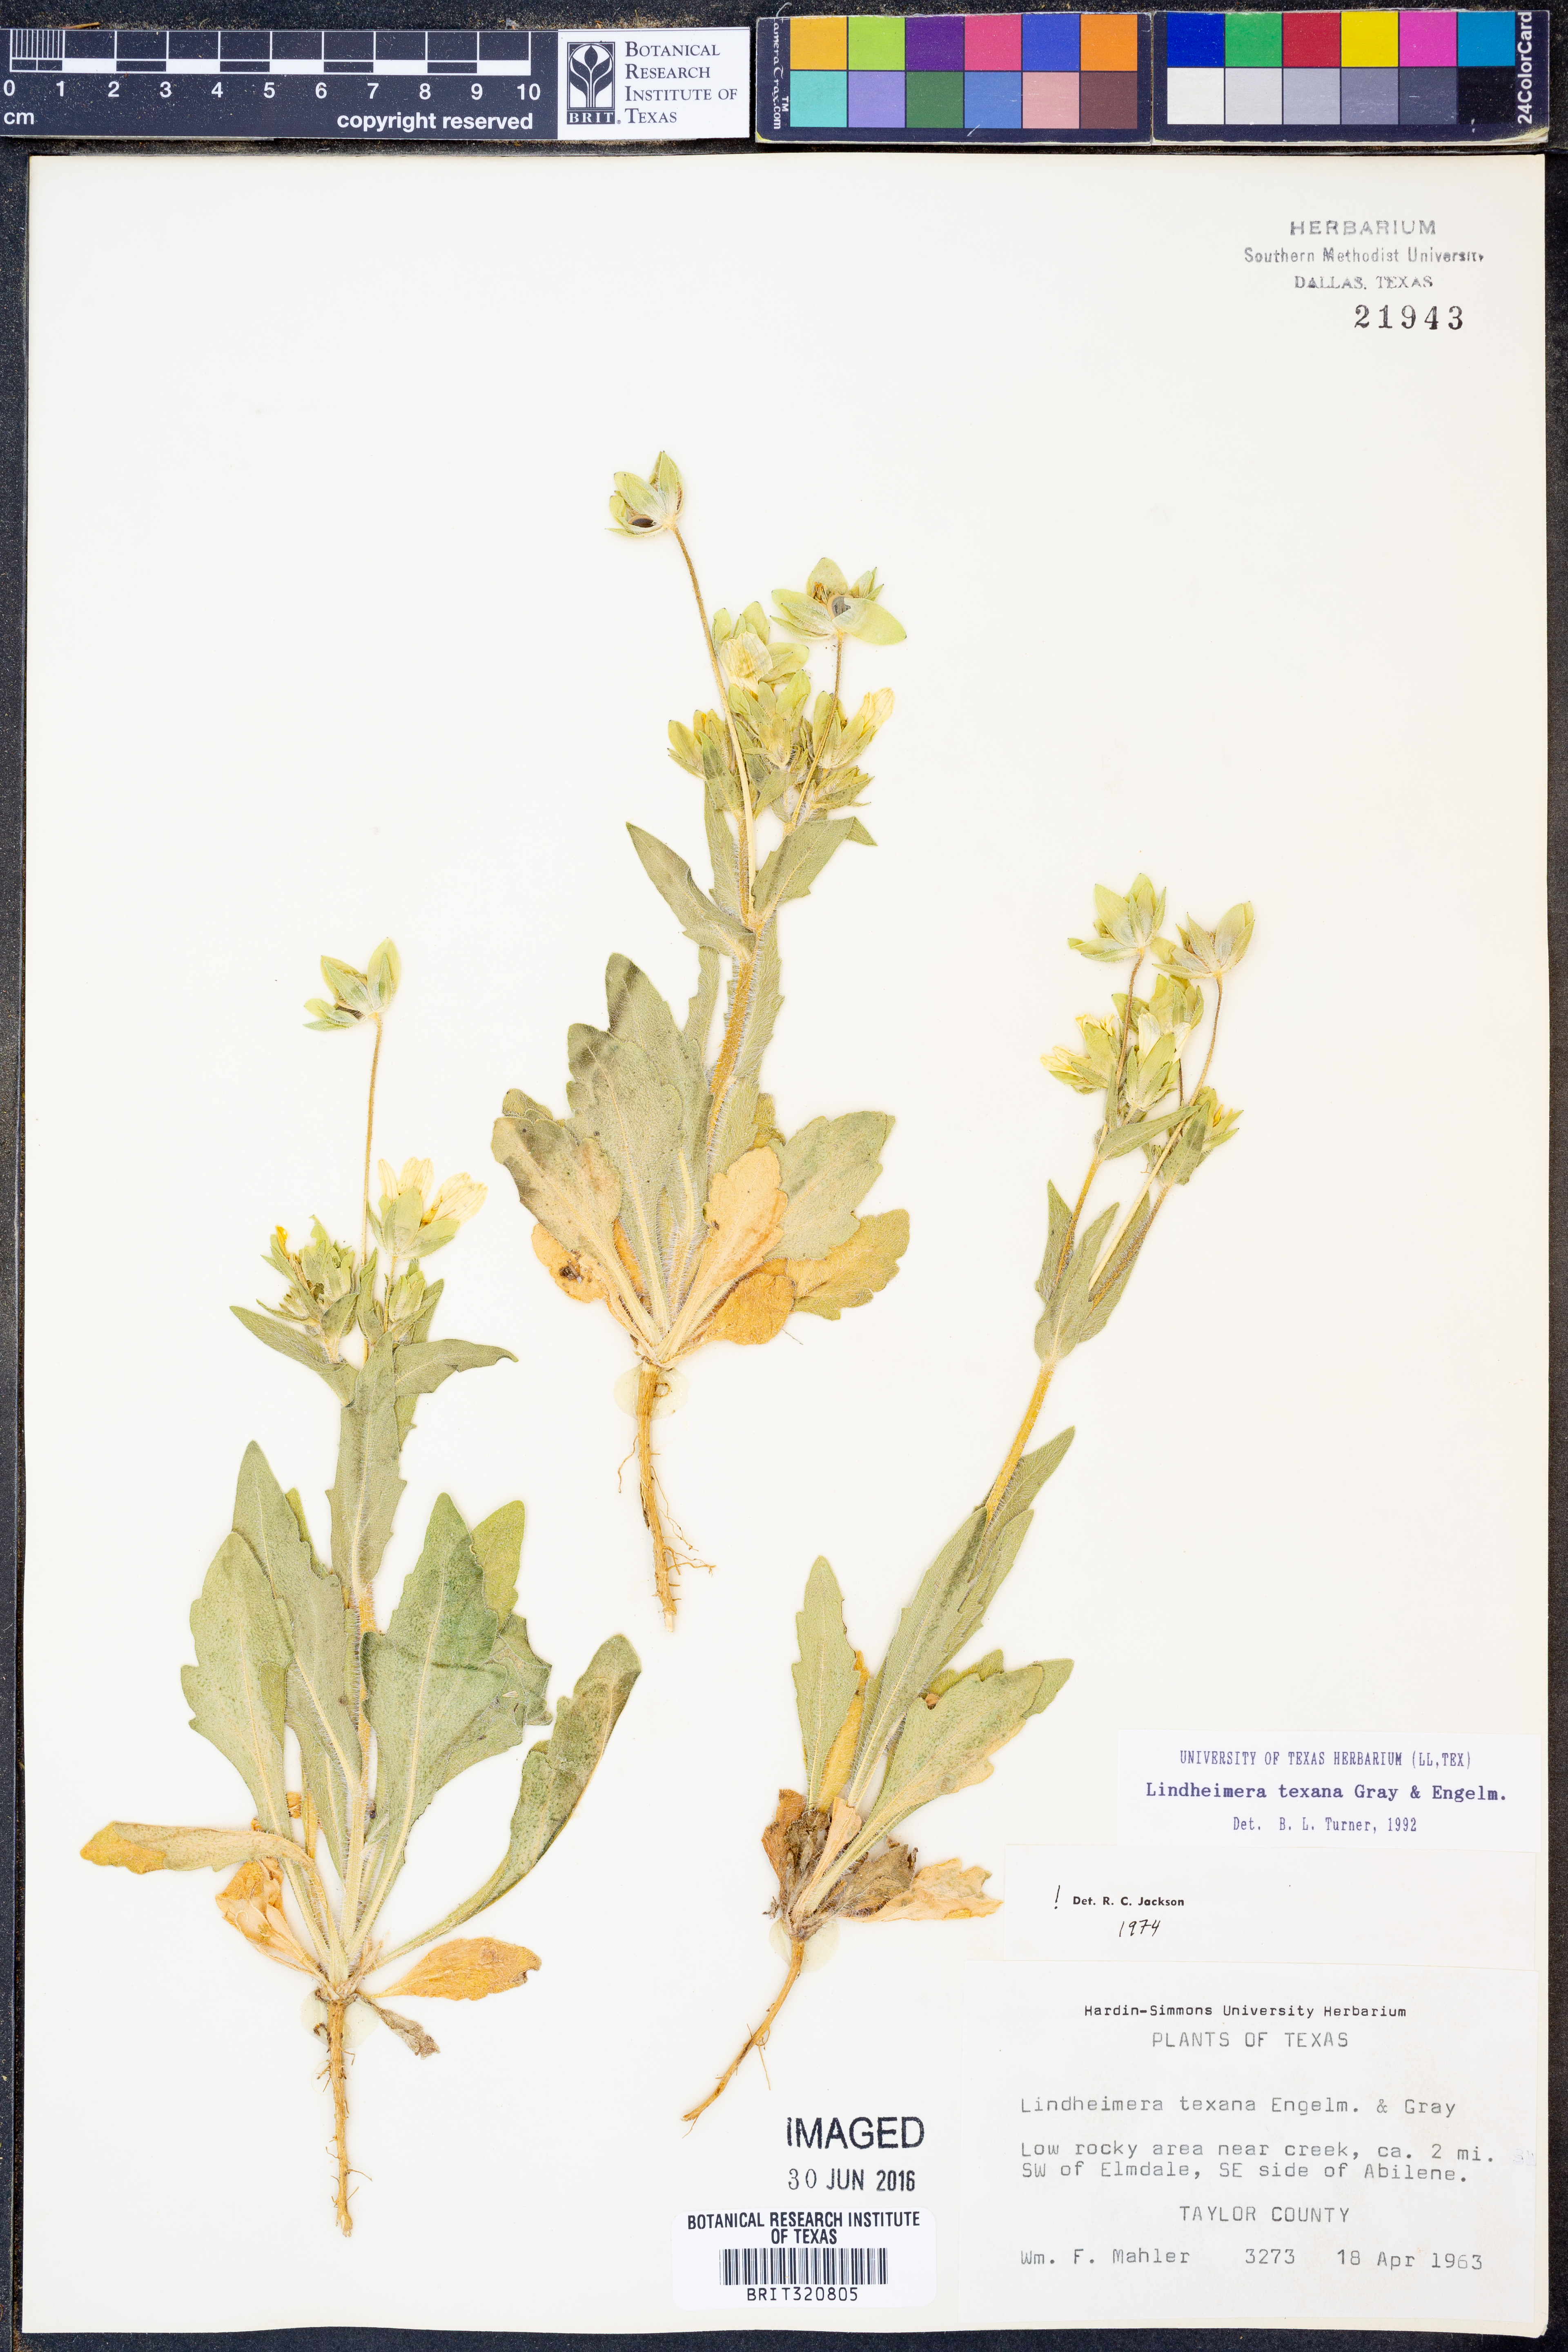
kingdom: Plantae
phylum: Tracheophyta
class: Magnoliopsida
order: Asterales
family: Asteraceae
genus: Lindheimera
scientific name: Lindheimera texana
